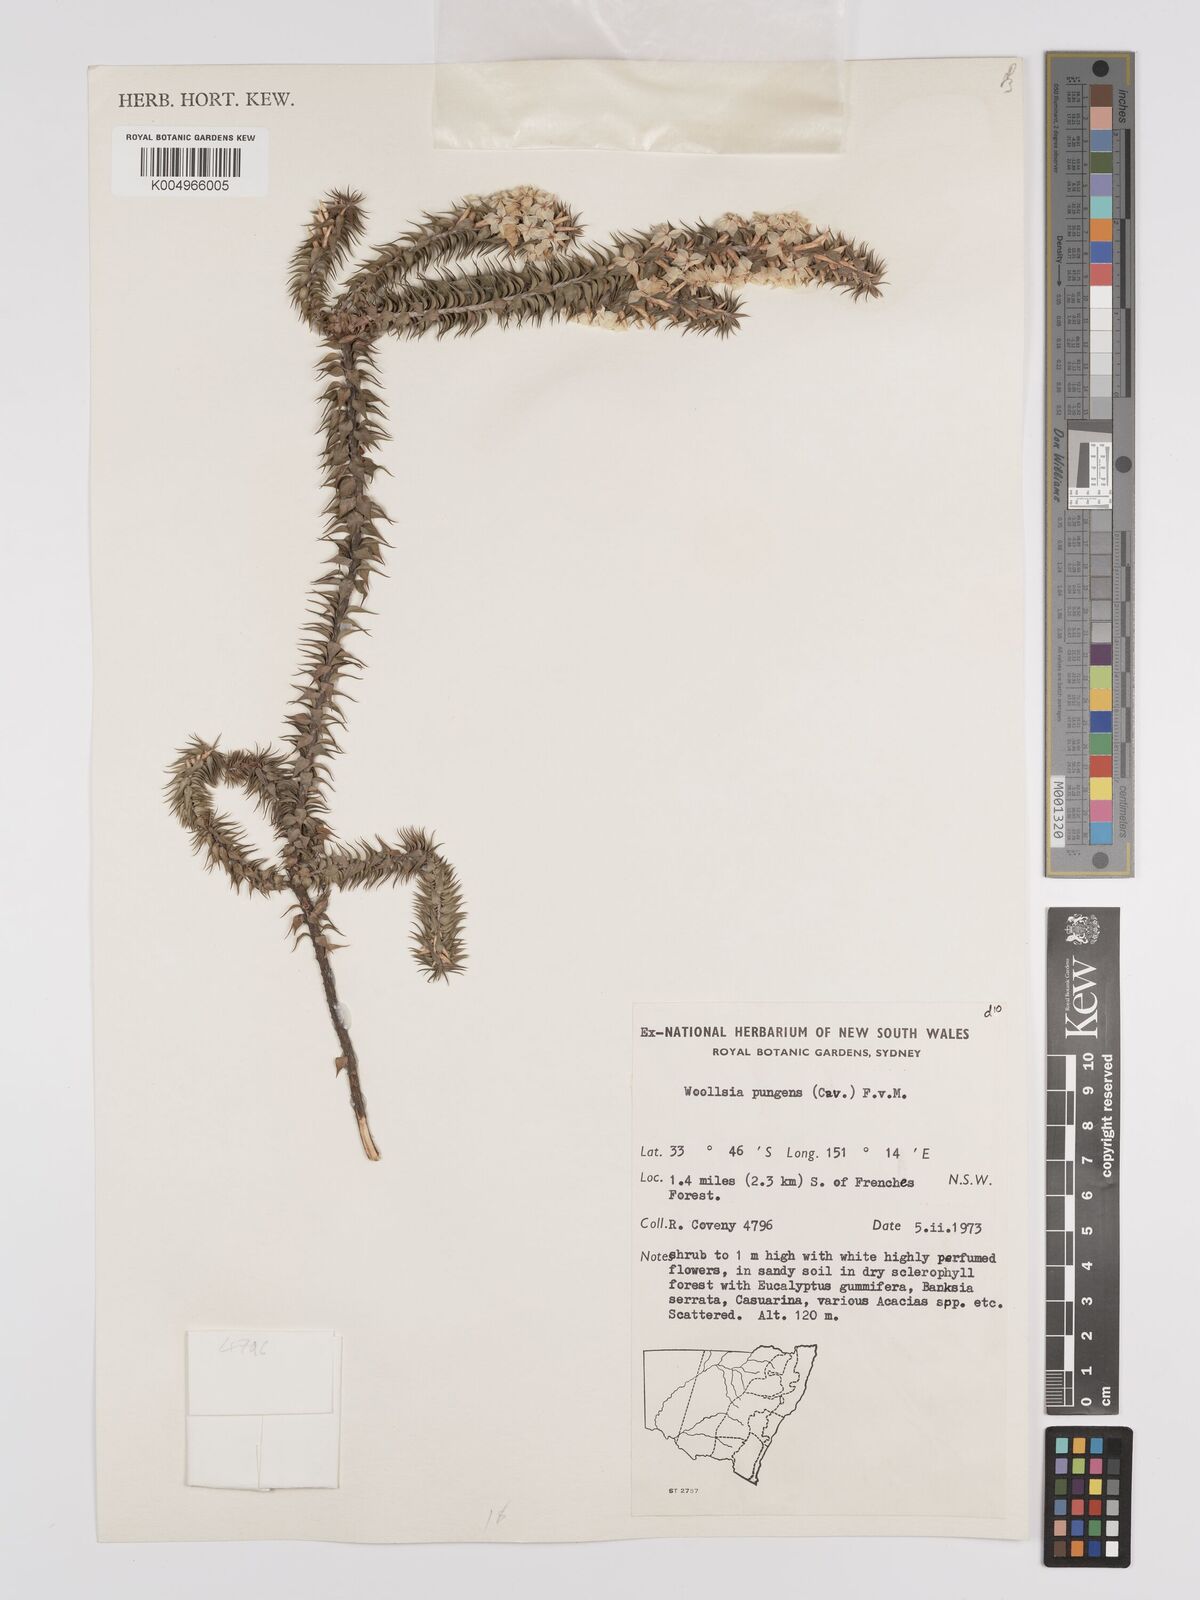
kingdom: Plantae
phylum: Tracheophyta
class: Magnoliopsida
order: Ericales
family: Ericaceae
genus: Woollsia
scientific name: Woollsia pungens
